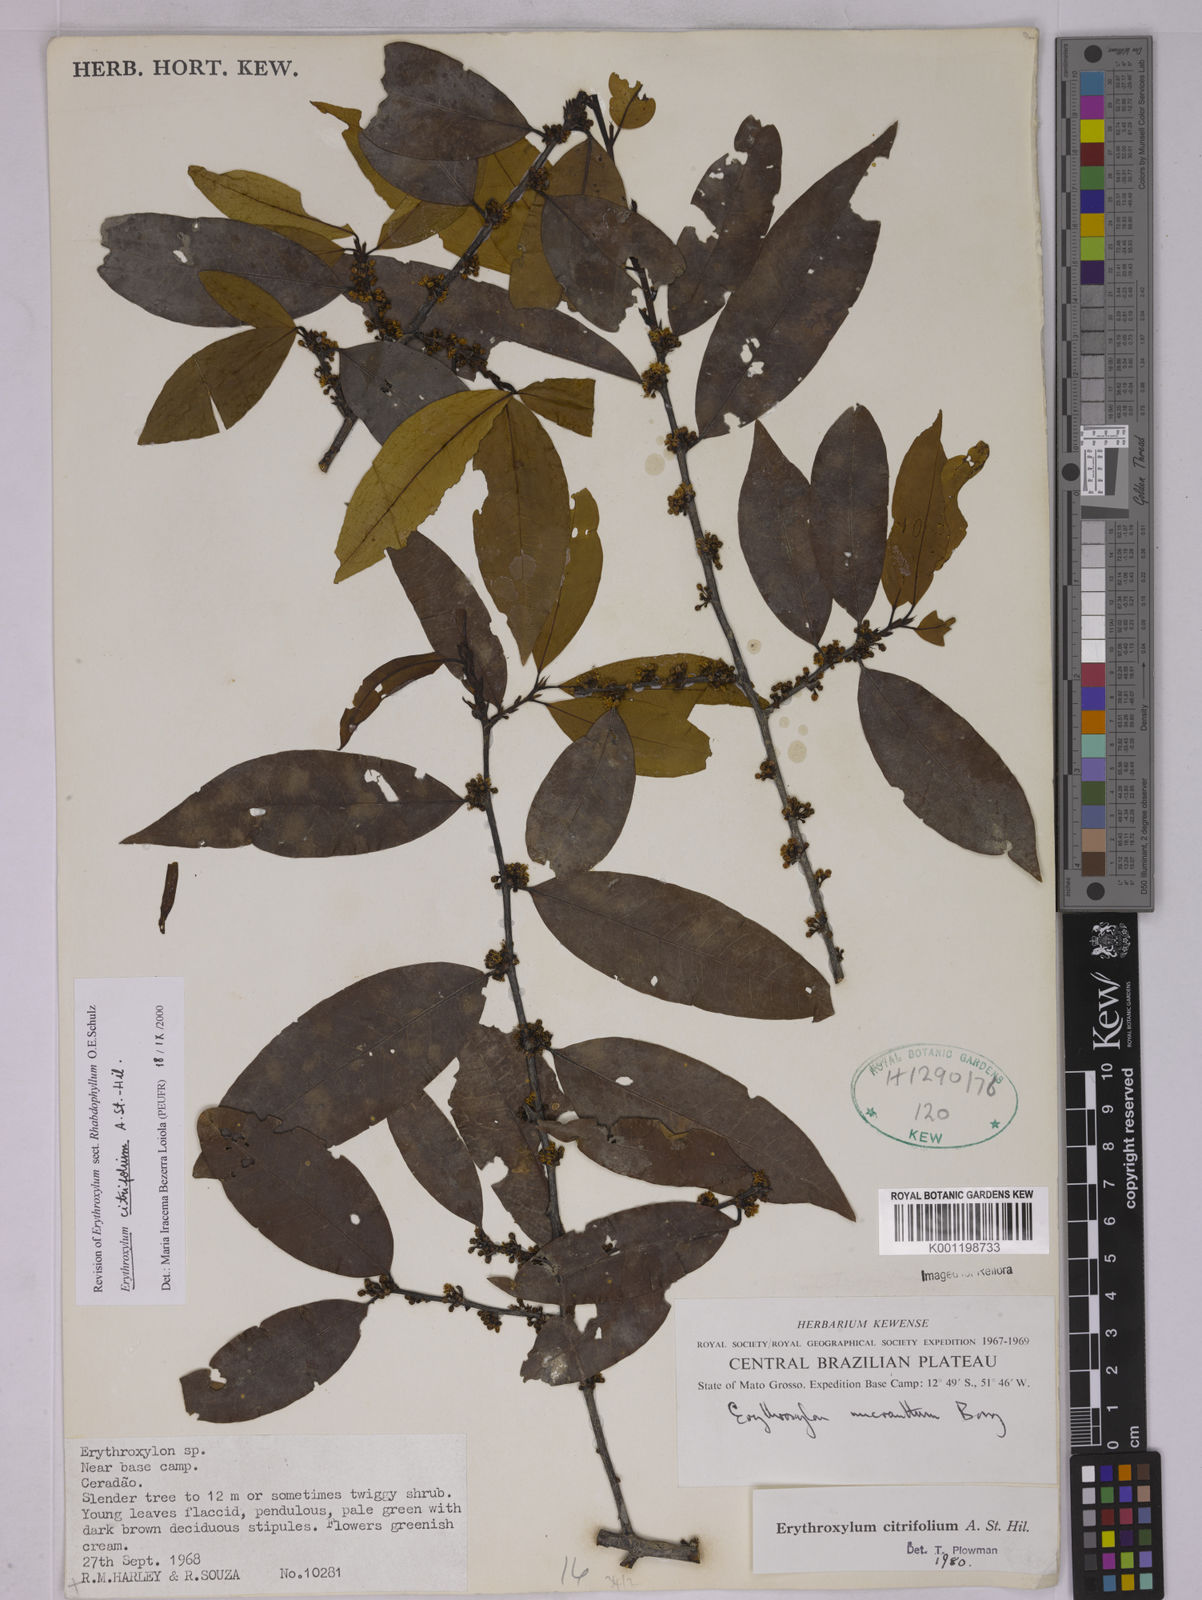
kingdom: Plantae
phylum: Tracheophyta
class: Magnoliopsida
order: Malpighiales
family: Erythroxylaceae
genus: Erythroxylum
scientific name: Erythroxylum citrifolium
